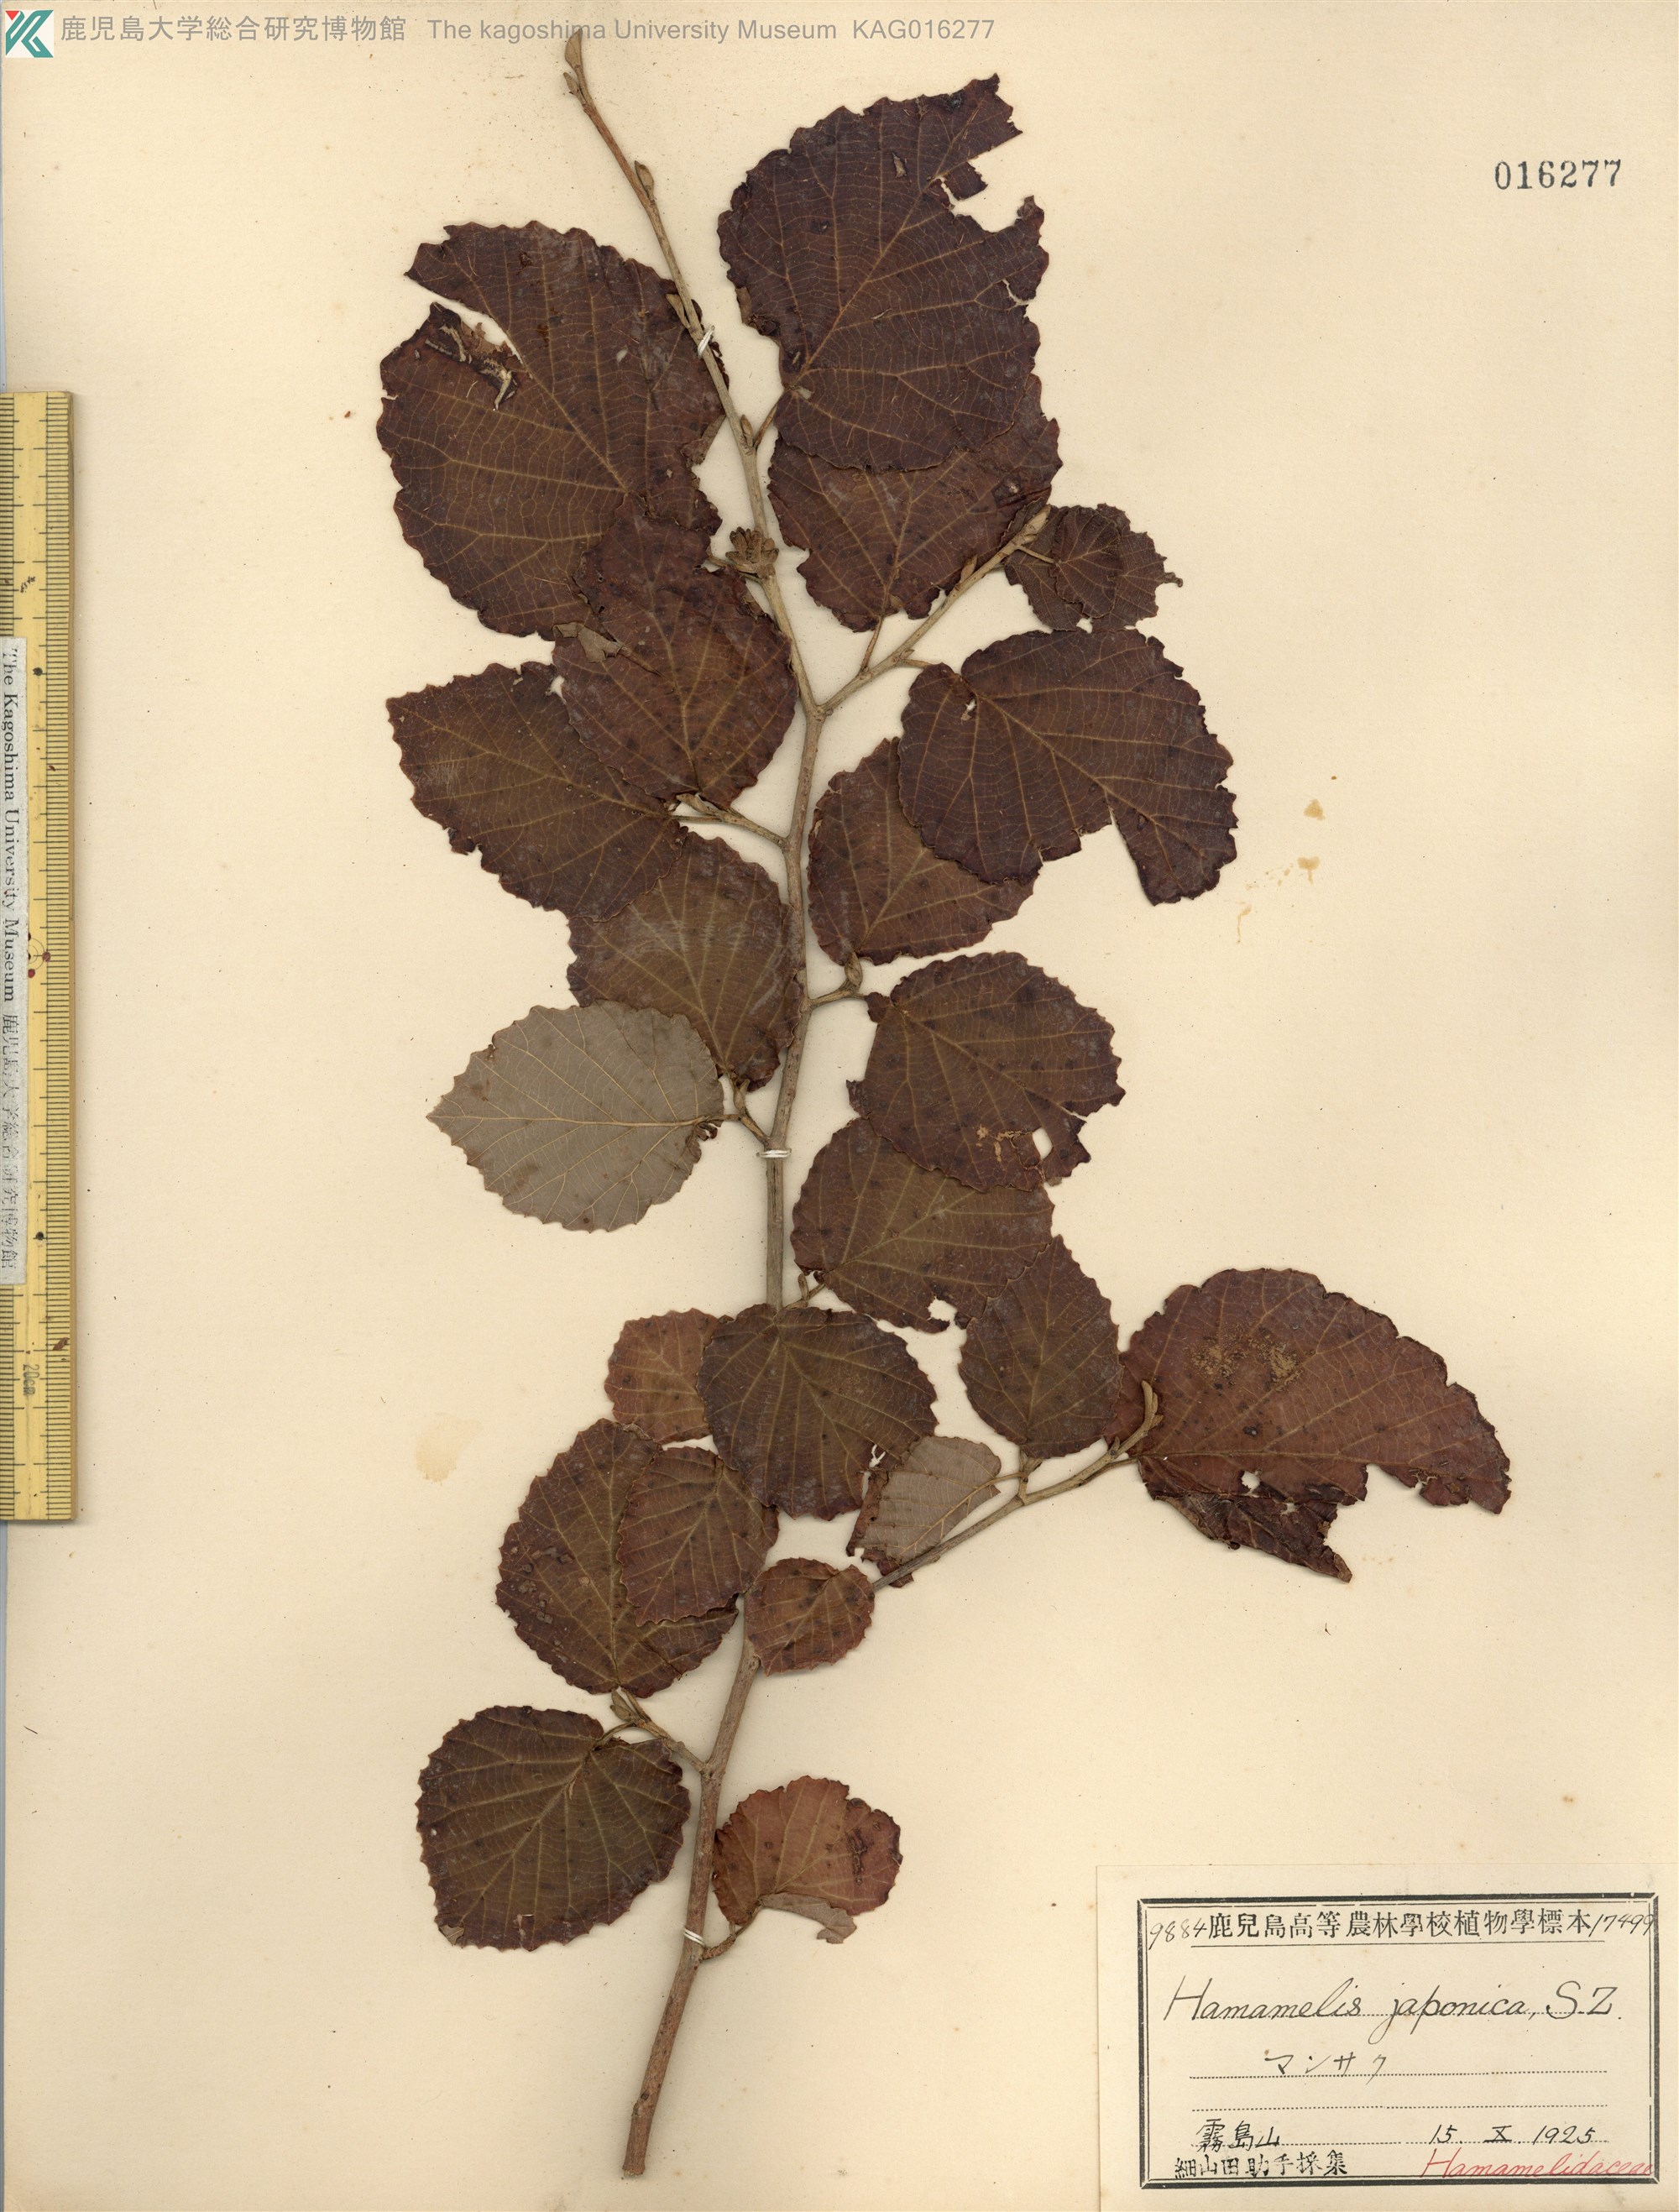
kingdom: Plantae
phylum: Tracheophyta
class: Magnoliopsida
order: Saxifragales
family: Hamamelidaceae
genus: Hamamelis
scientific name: Hamamelis japonica
